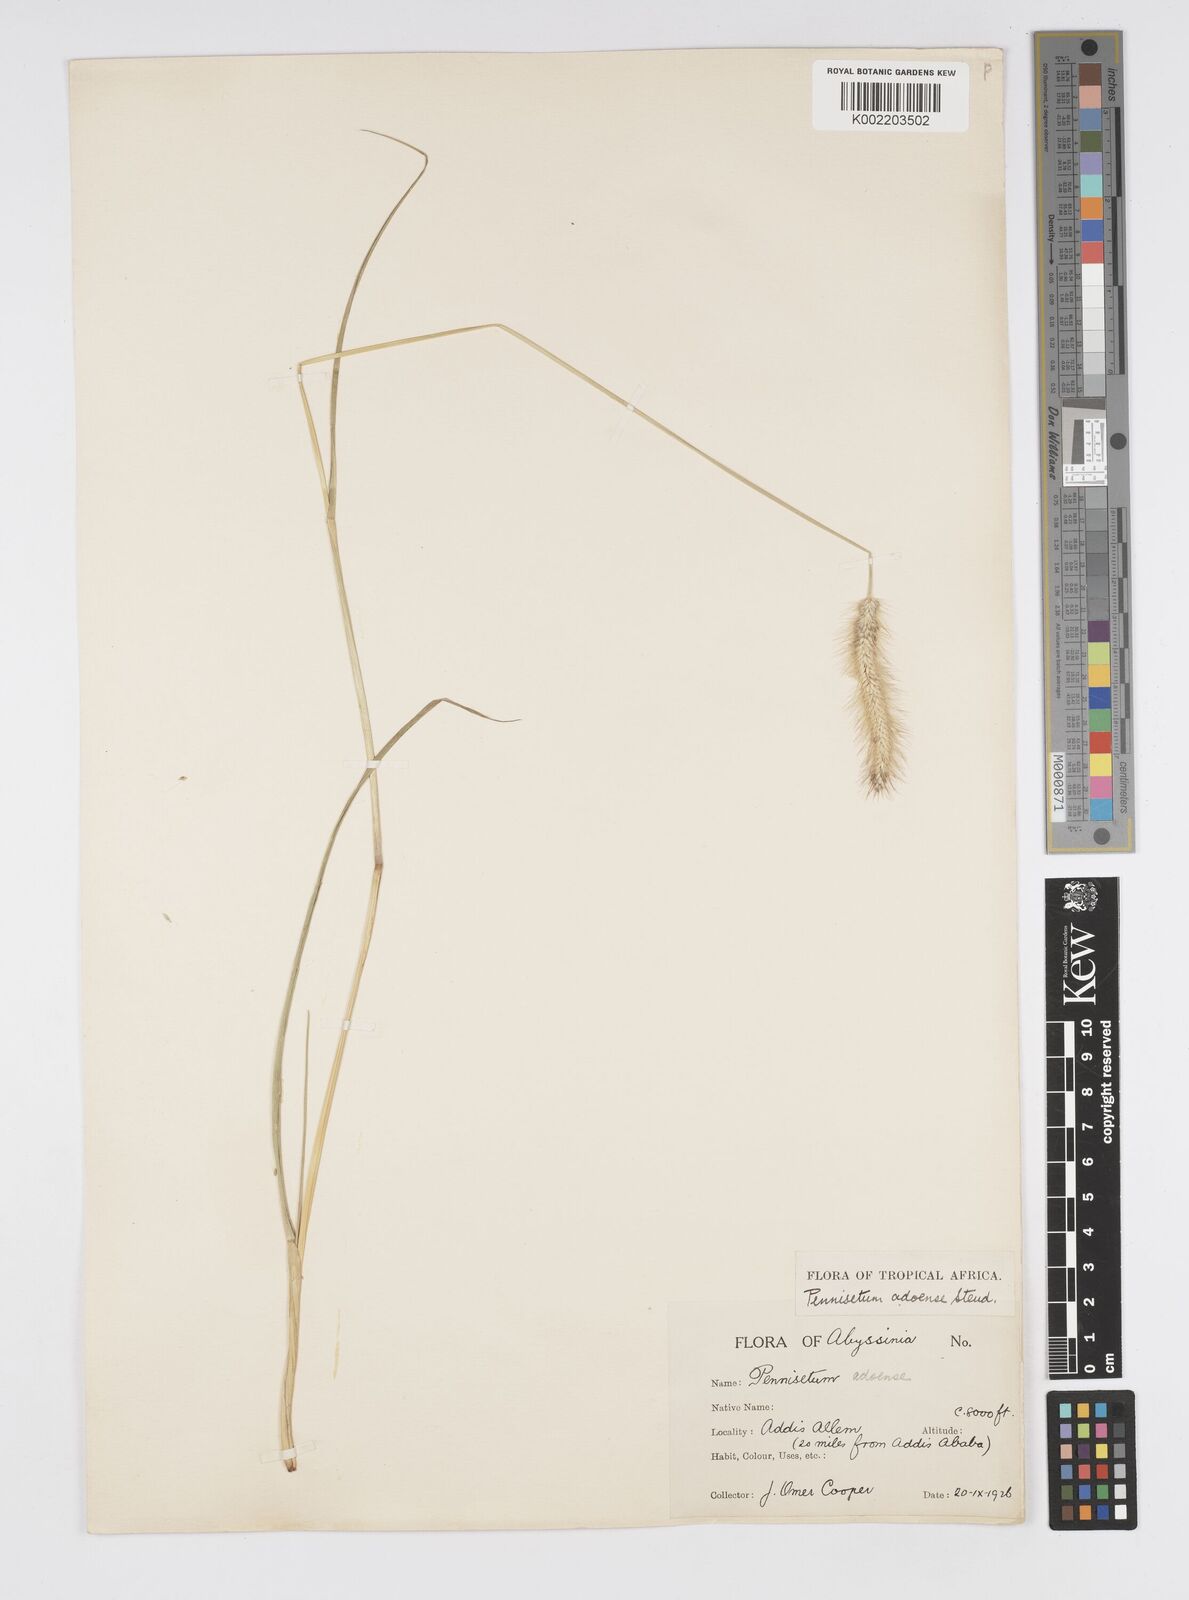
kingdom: Plantae
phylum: Tracheophyta
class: Liliopsida
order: Poales
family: Poaceae
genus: Cenchrus
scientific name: Cenchrus geniculatus
